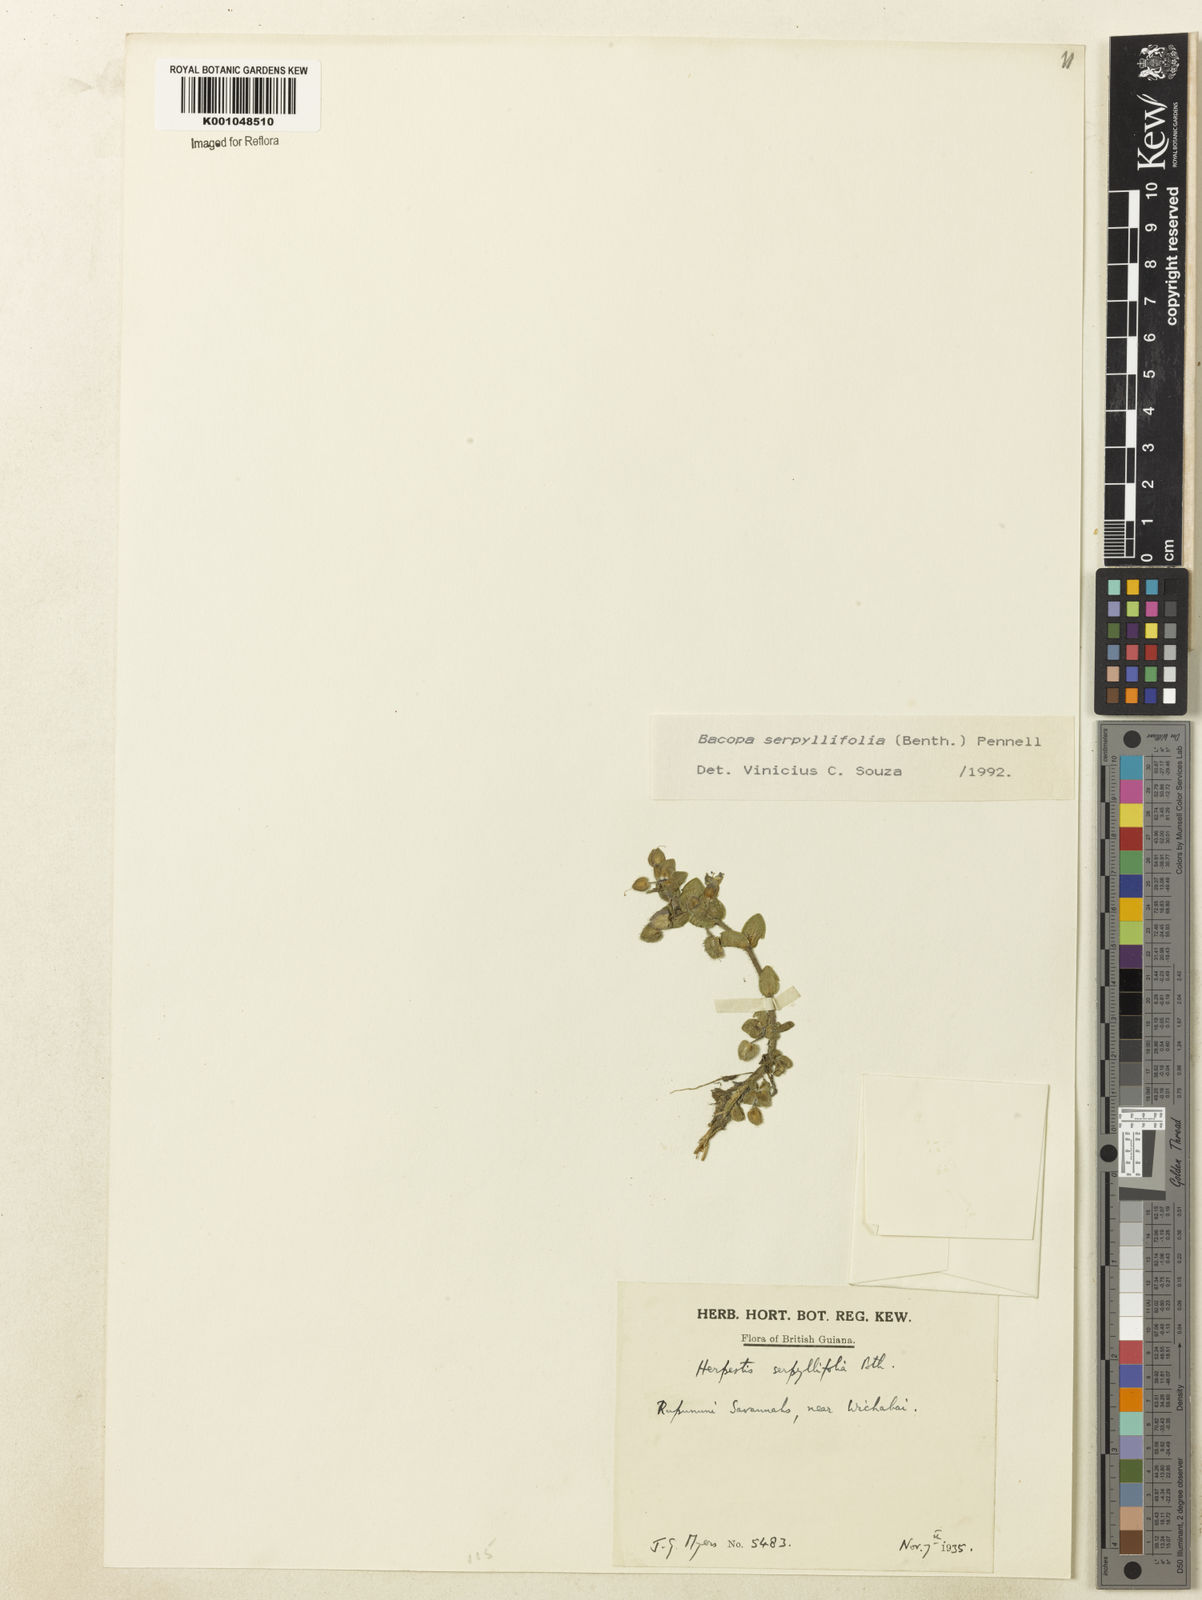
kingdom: Plantae
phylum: Tracheophyta
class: Magnoliopsida
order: Lamiales
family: Plantaginaceae
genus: Bacopa
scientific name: Bacopa serpyllifolia
